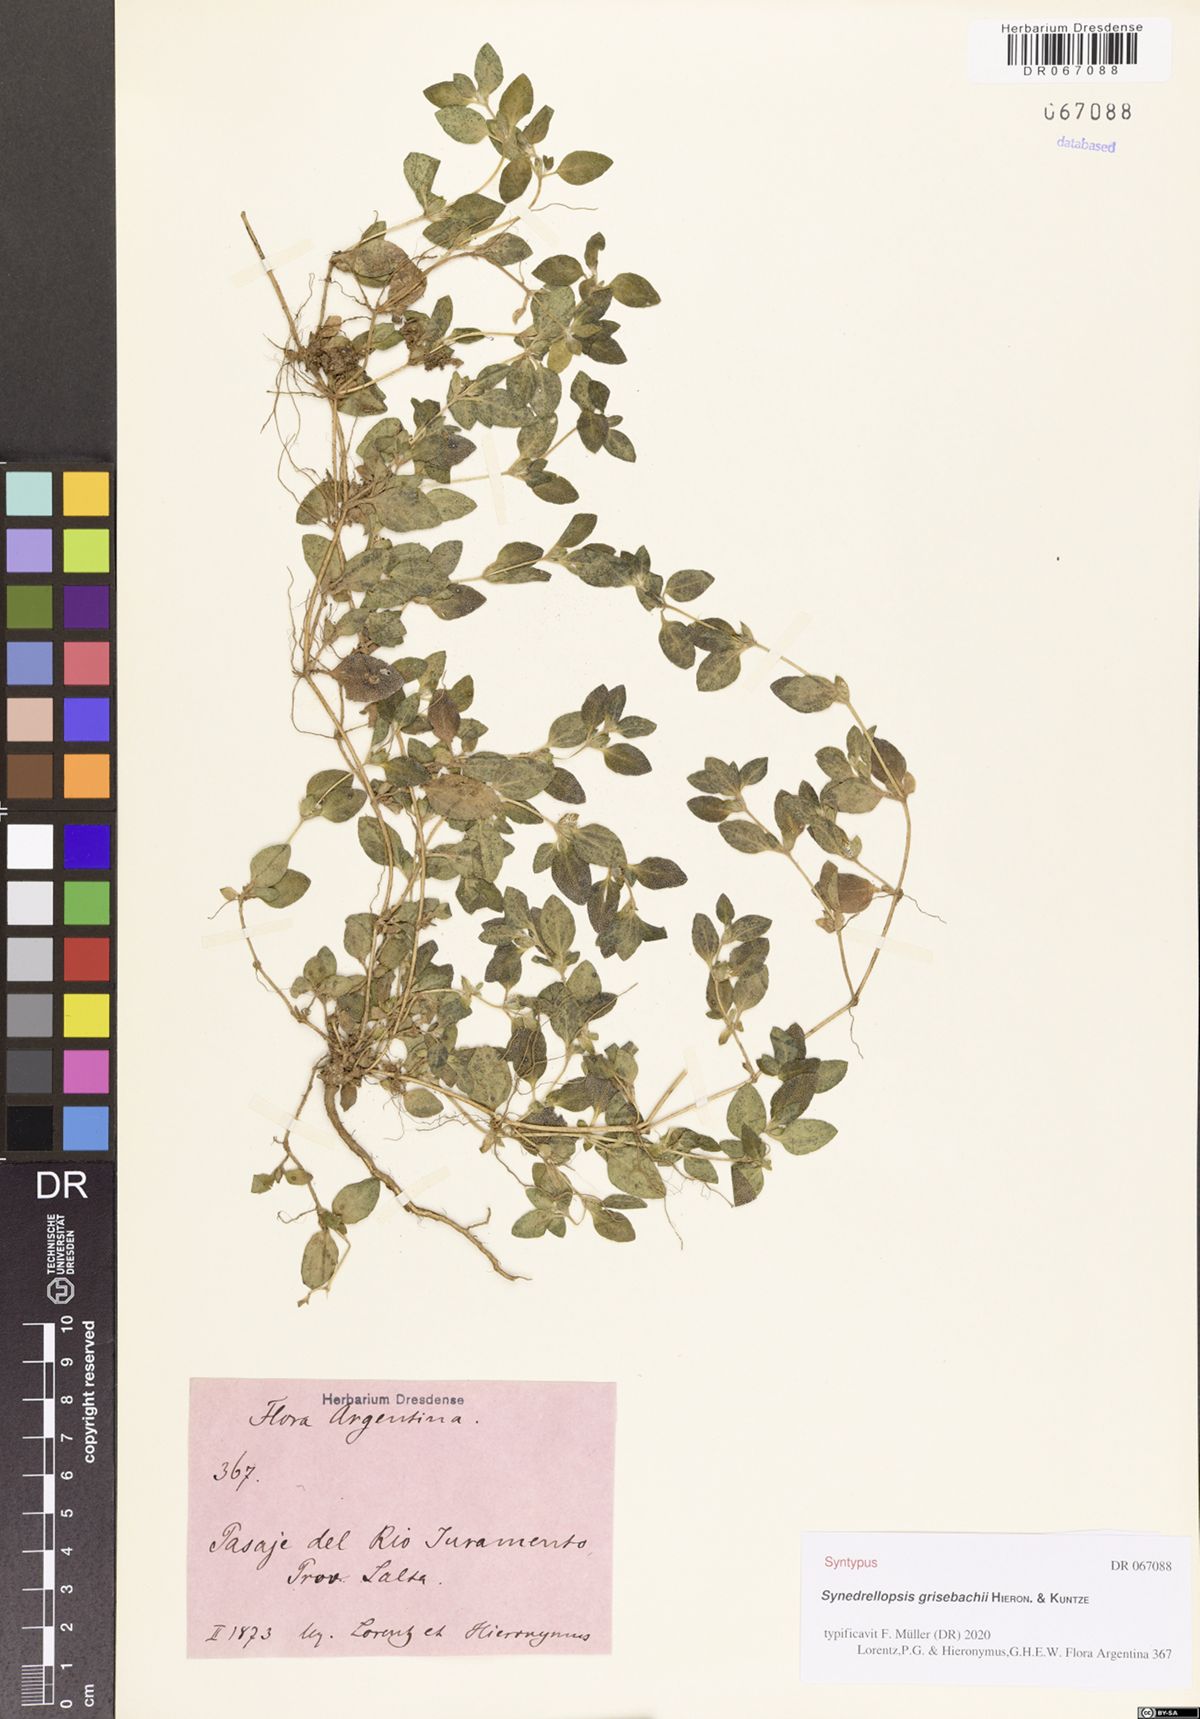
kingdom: Plantae
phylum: Tracheophyta
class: Magnoliopsida
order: Asterales
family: Asteraceae
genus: Synedrellopsis
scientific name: Synedrellopsis grisebachii
